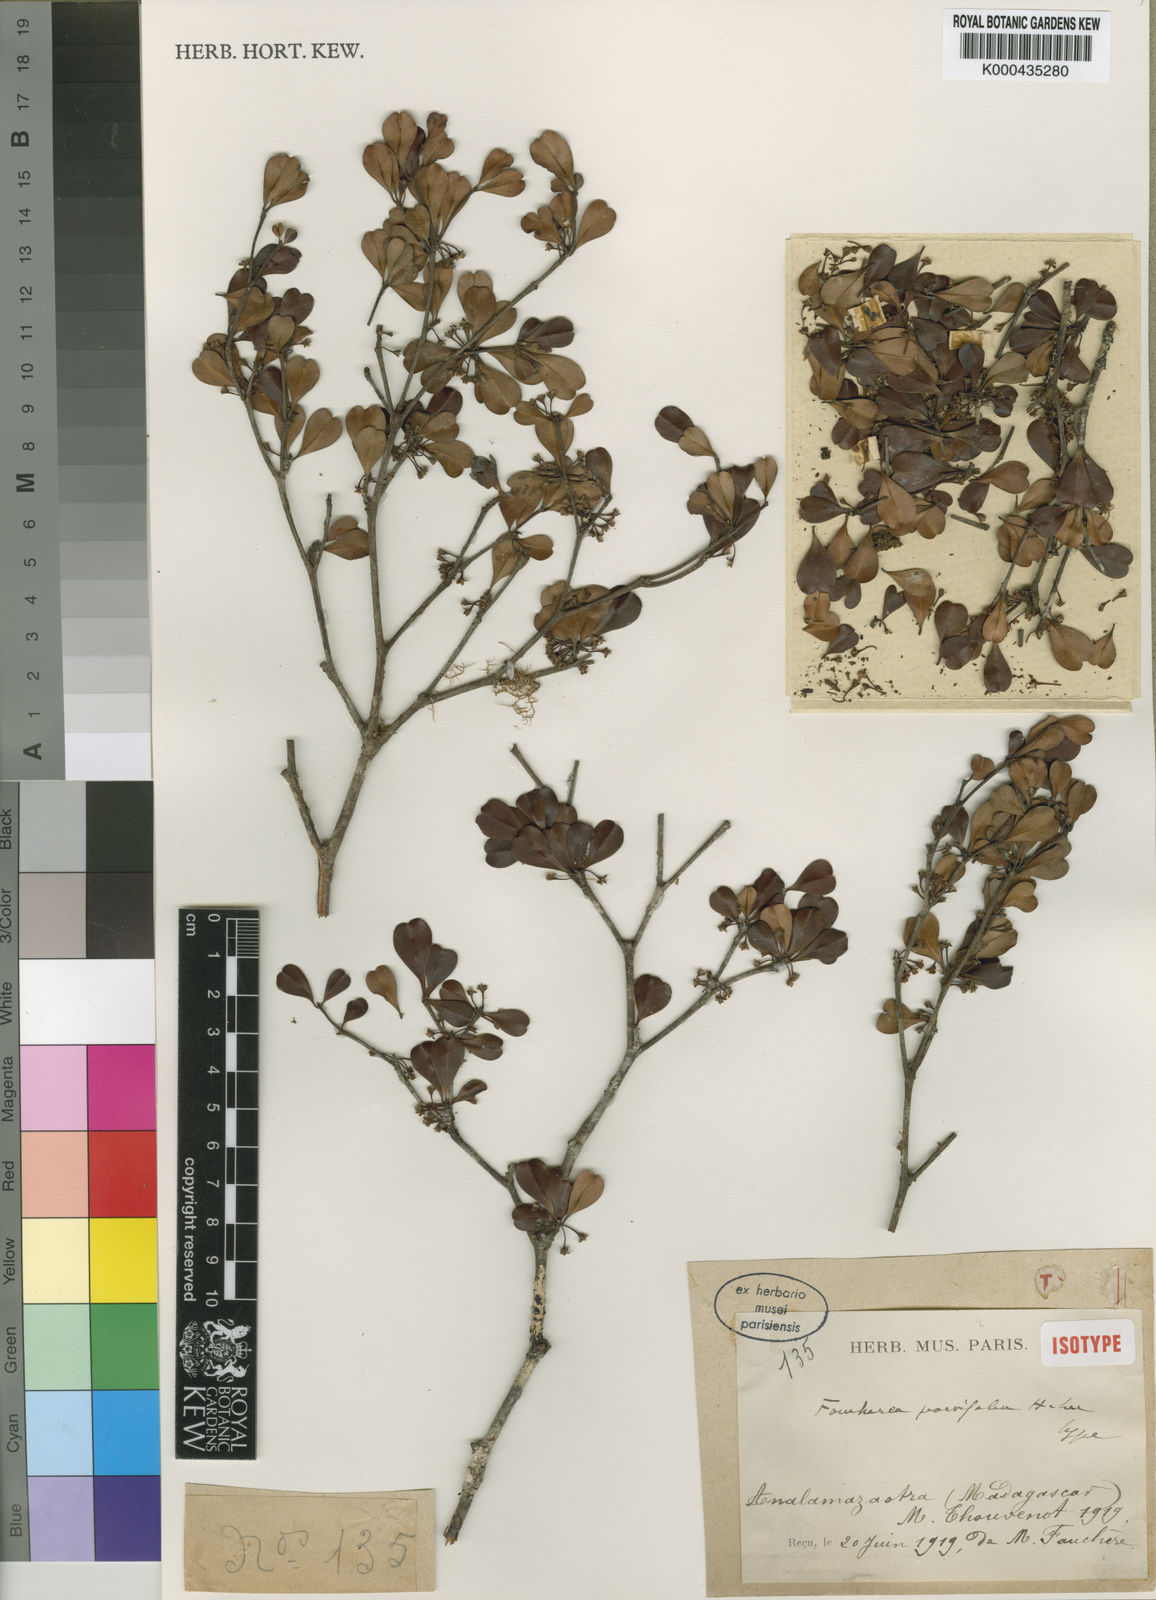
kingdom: Plantae
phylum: Tracheophyta
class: Magnoliopsida
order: Ericales
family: Sapotaceae
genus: Faucherea
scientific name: Faucherea parvifolia
